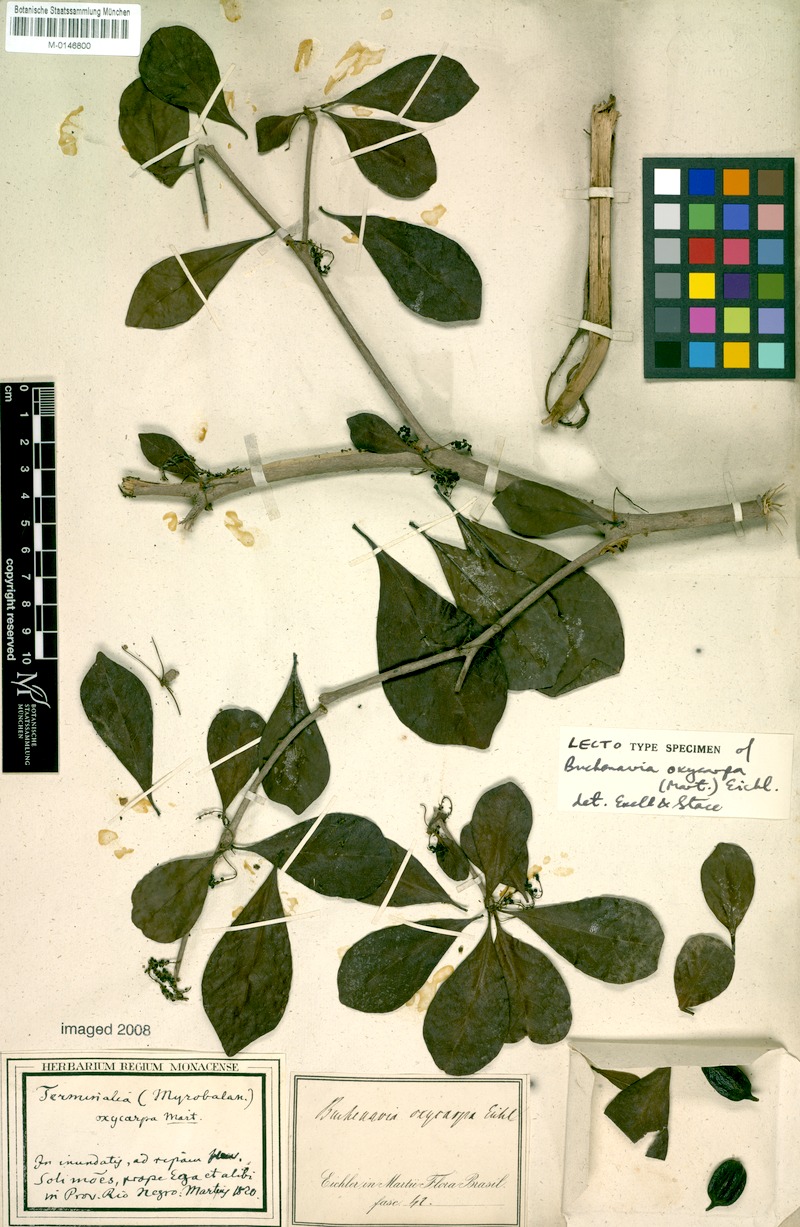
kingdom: Plantae
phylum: Tracheophyta
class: Magnoliopsida
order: Myrtales
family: Combretaceae
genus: Terminalia
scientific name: Terminalia oxycarpa
